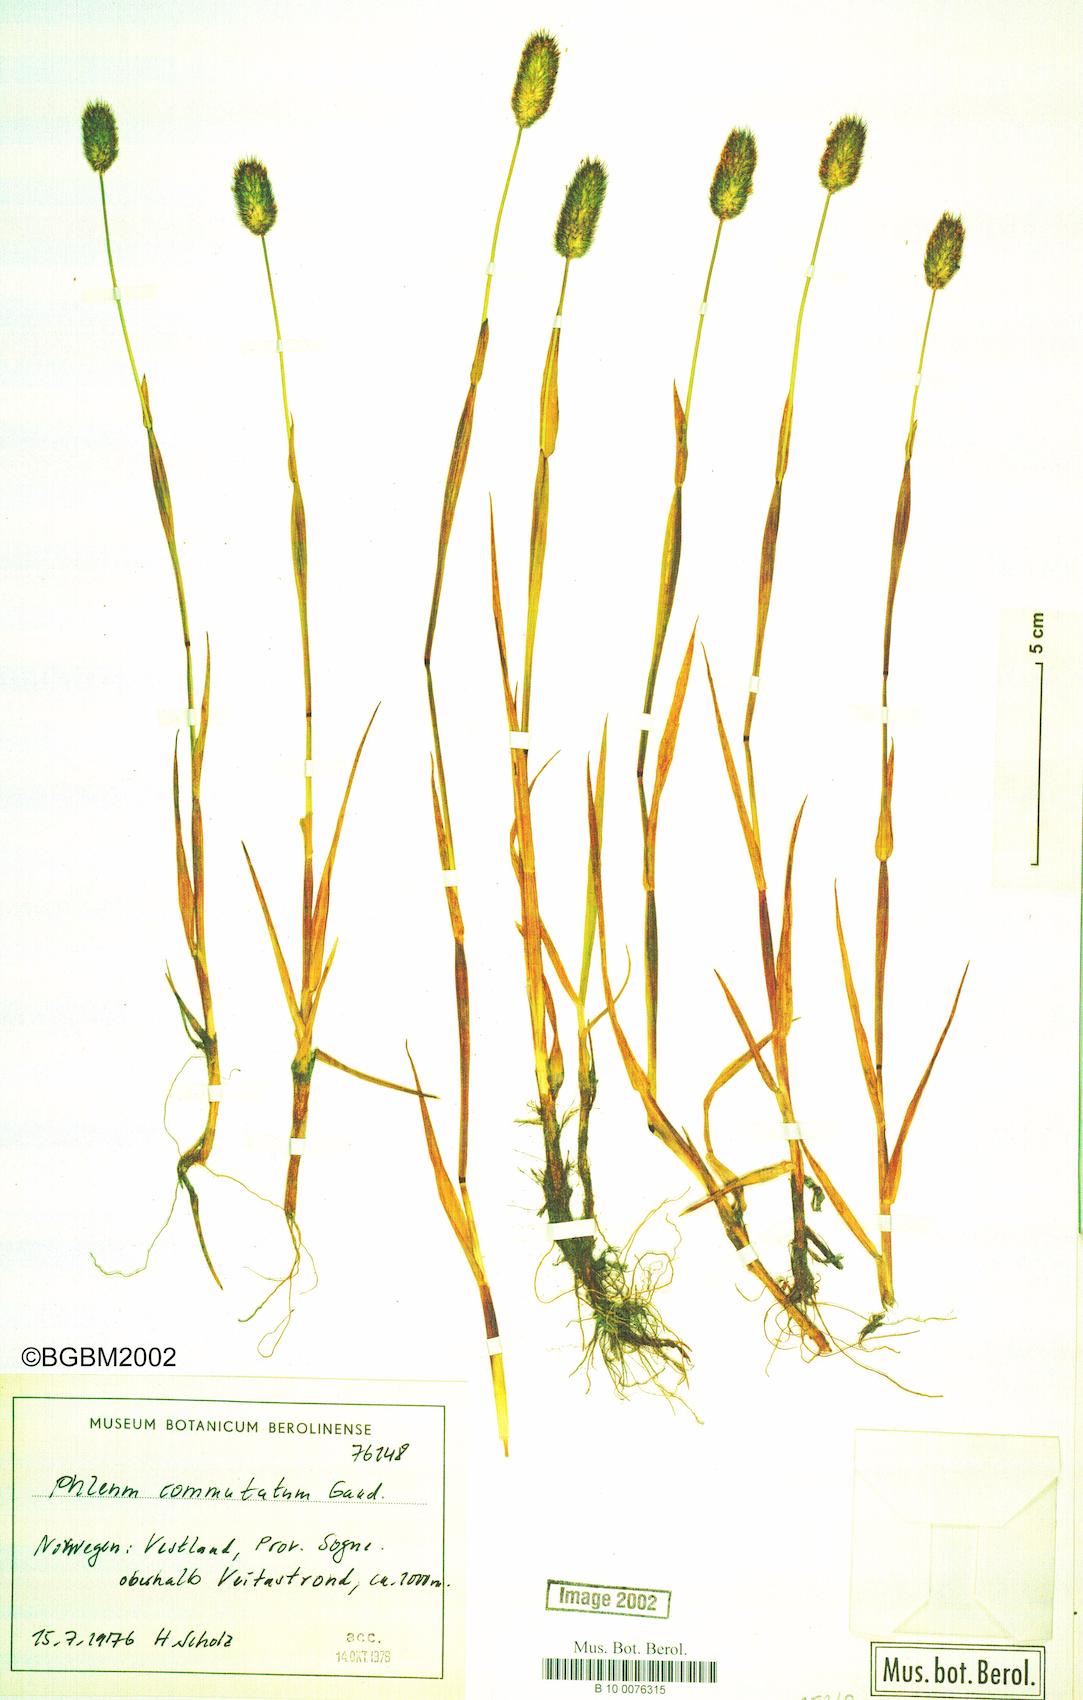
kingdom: Plantae
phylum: Tracheophyta
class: Liliopsida
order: Poales
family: Poaceae
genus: Phleum
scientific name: Phleum alpinum
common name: Alpine cat's-tail
